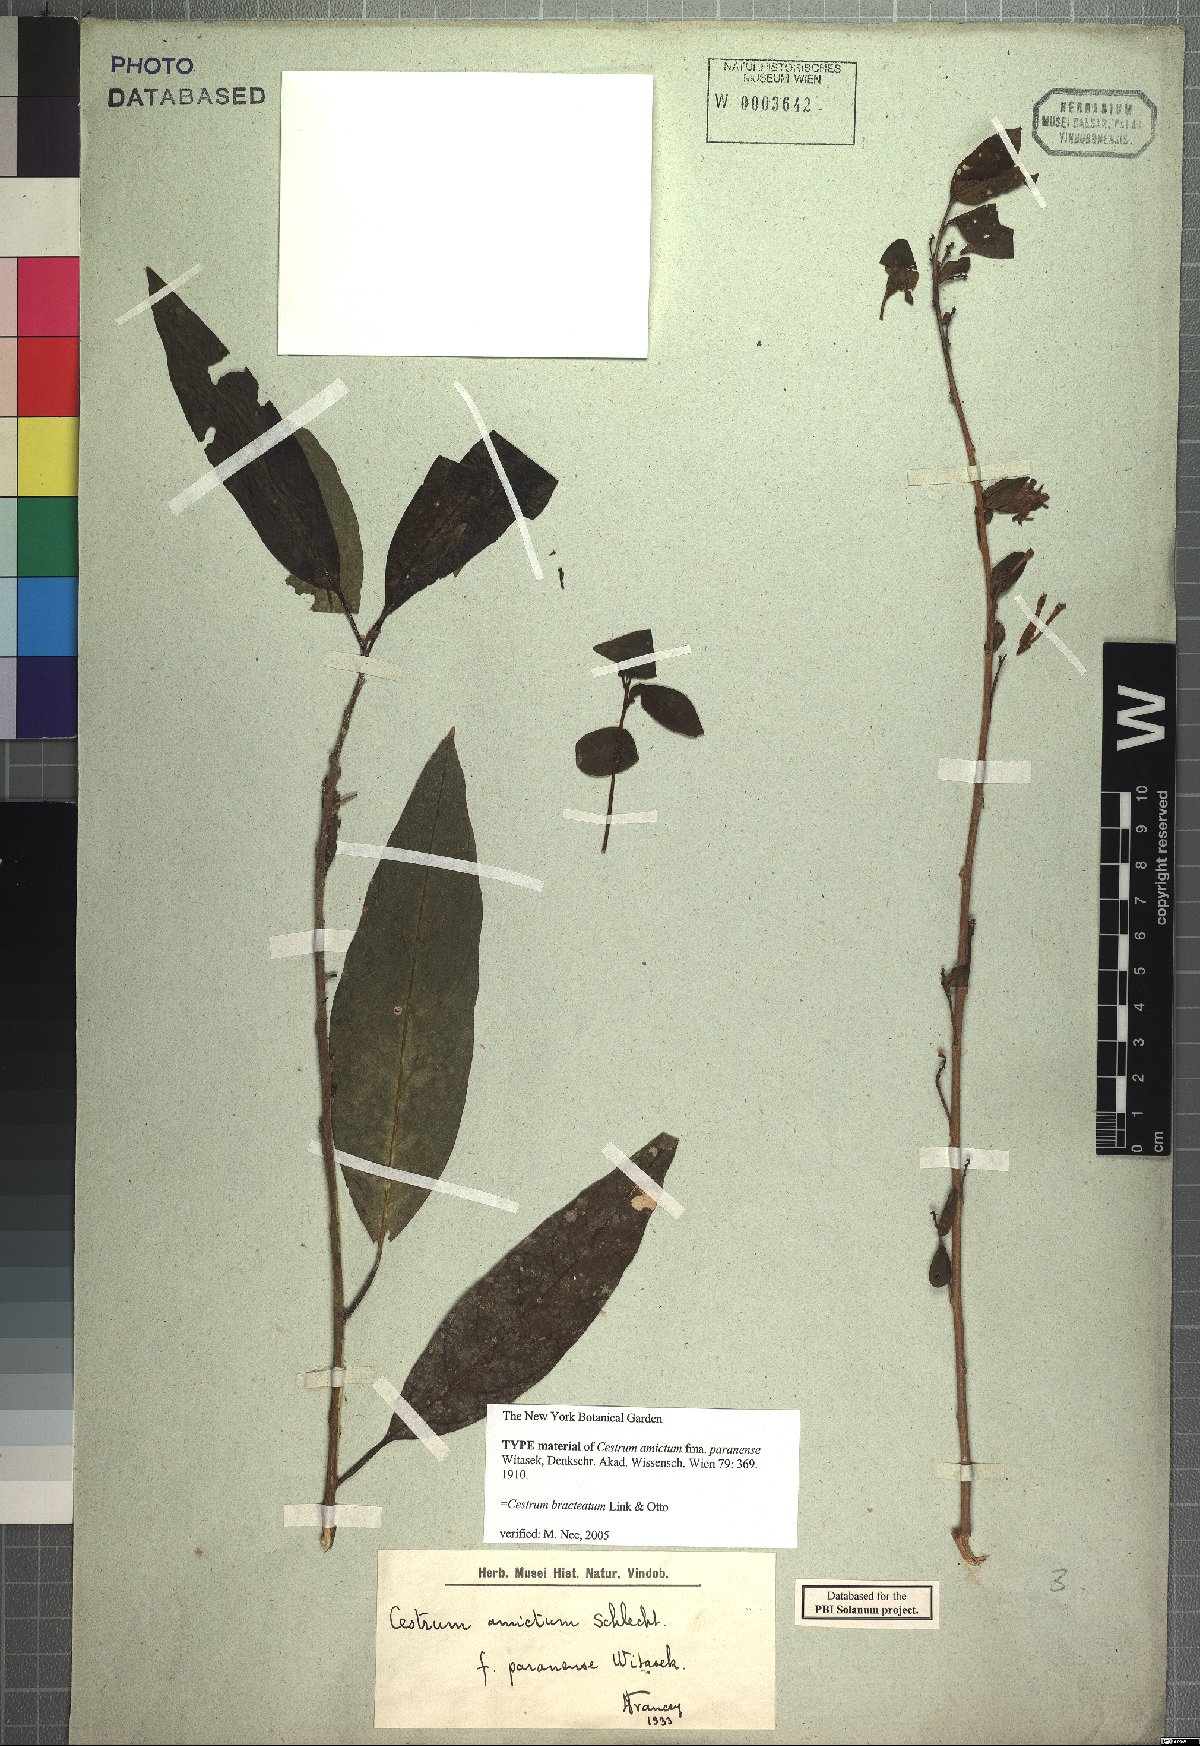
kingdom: Plantae
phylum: Tracheophyta
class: Magnoliopsida
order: Solanales
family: Solanaceae
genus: Cestrum
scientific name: Cestrum bracteatum
